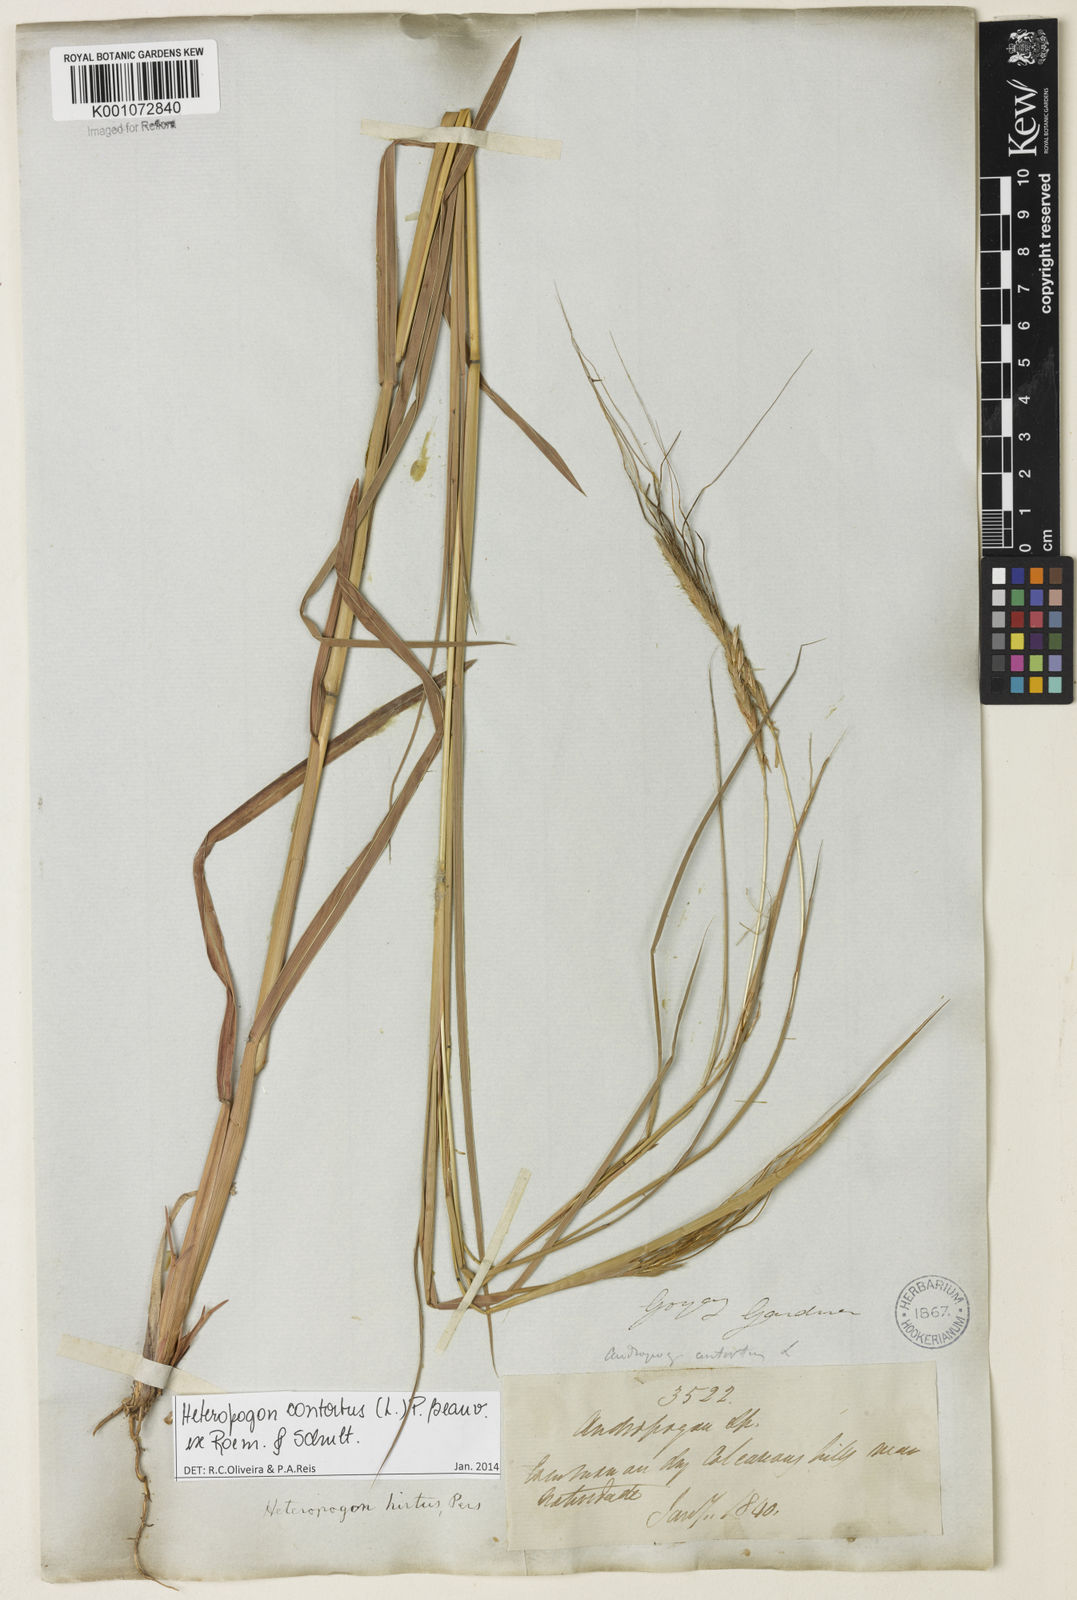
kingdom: Plantae
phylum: Tracheophyta
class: Liliopsida
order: Poales
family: Poaceae
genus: Heteropogon
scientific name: Heteropogon contortus
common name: Tanglehead
